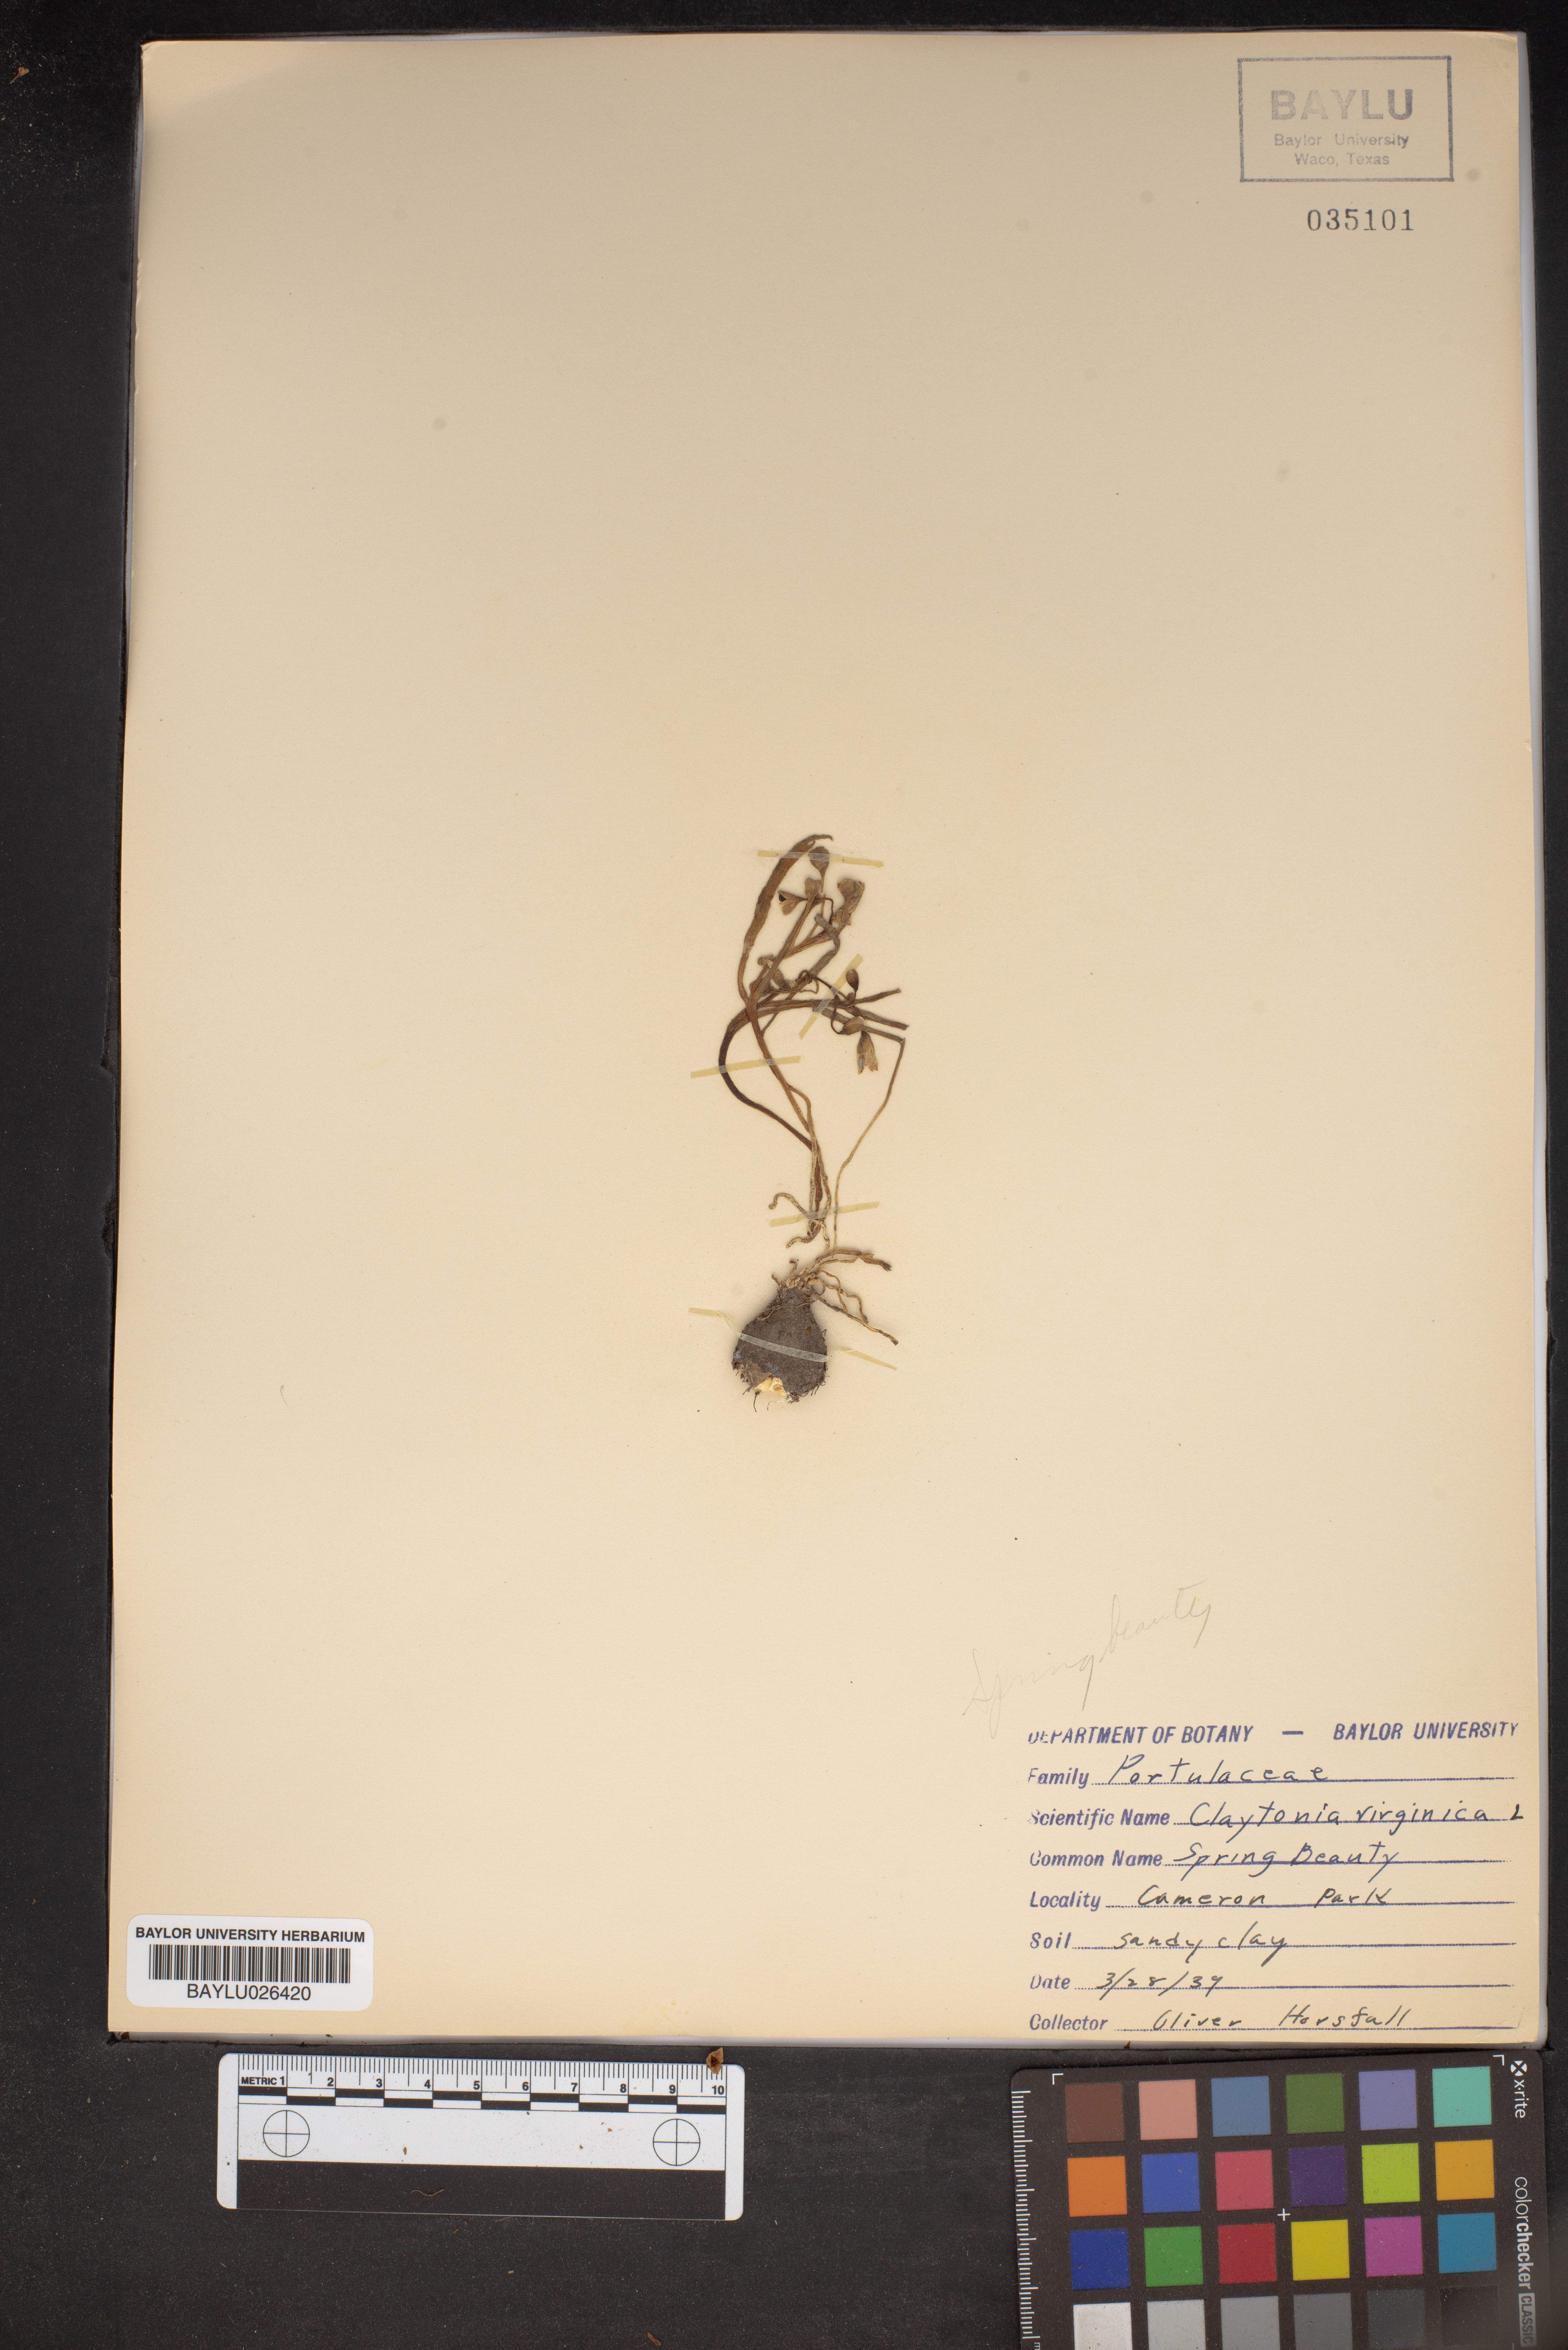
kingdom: Plantae
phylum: Tracheophyta
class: Magnoliopsida
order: Caryophyllales
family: Montiaceae
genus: Claytonia
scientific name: Claytonia virginica
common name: Virginia springbeauty
